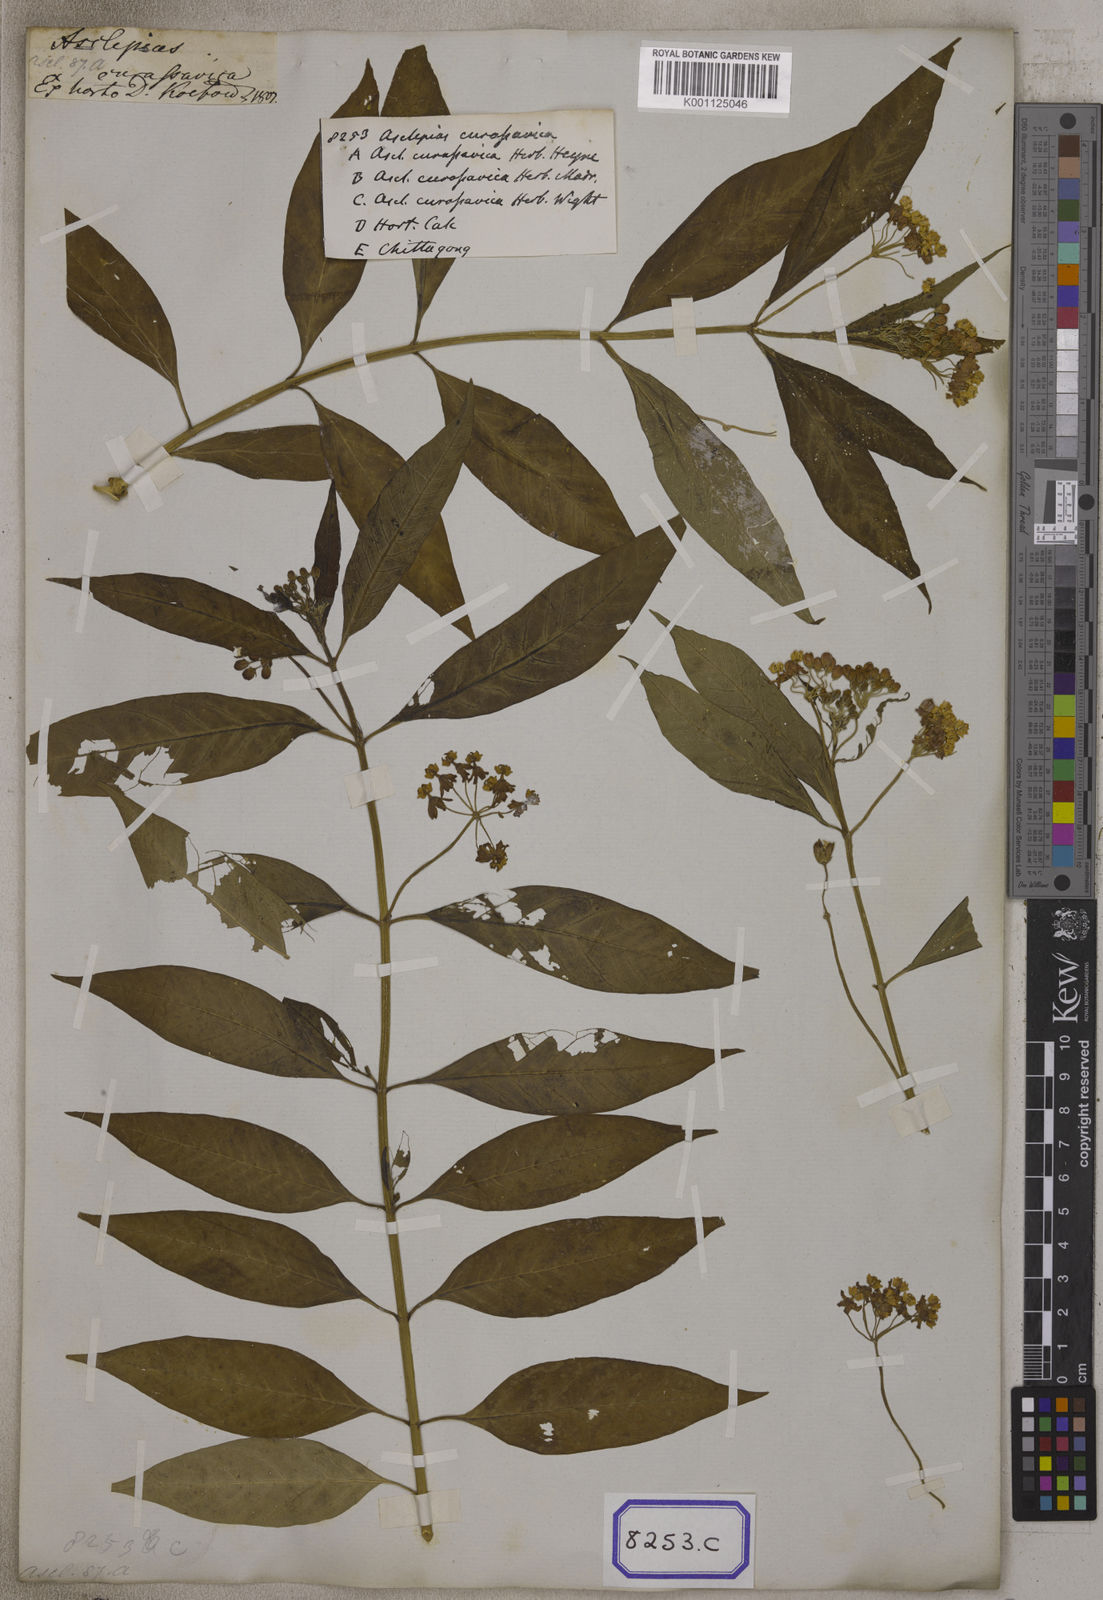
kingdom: Plantae
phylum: Tracheophyta
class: Magnoliopsida
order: Gentianales
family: Apocynaceae
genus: Asclepias
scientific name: Asclepias curassavica
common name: Bloodflower
